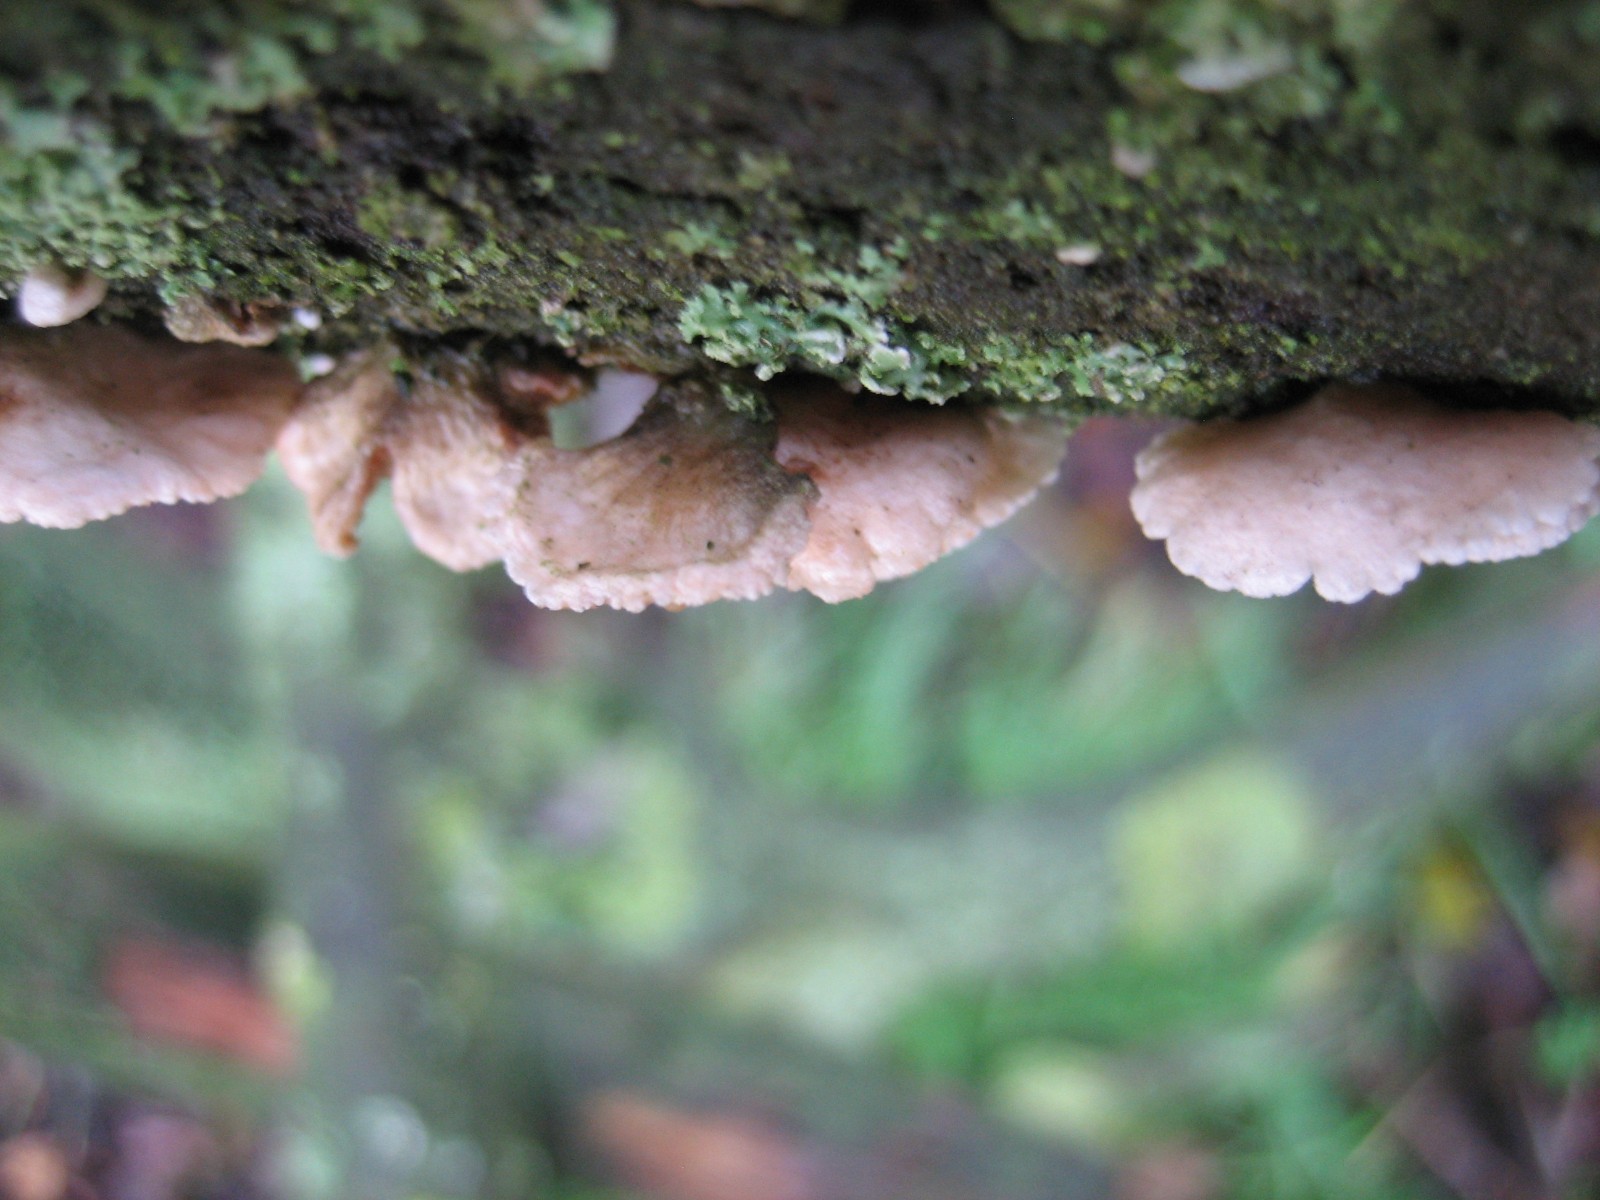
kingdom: Fungi
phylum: Basidiomycota
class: Agaricomycetes
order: Agaricales
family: Crepidotaceae
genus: Crepidotus
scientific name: Crepidotus
